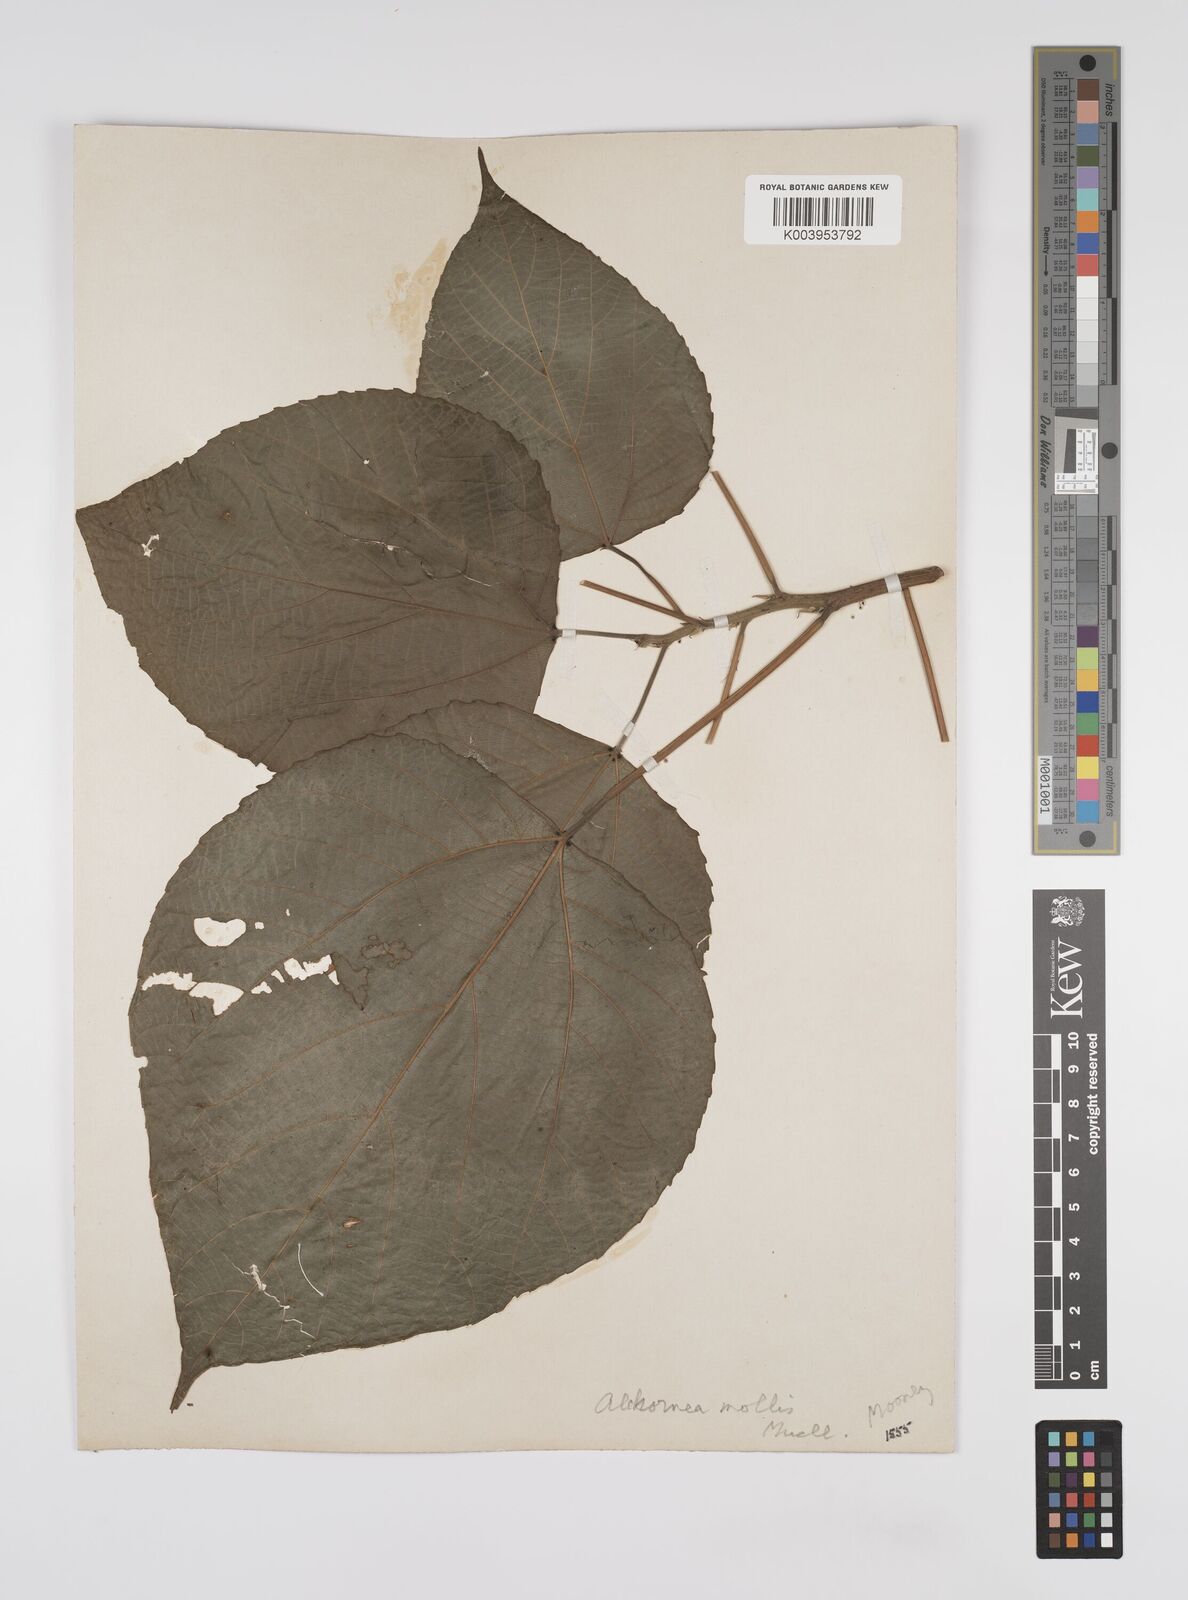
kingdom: Plantae
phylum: Tracheophyta
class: Magnoliopsida
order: Malpighiales
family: Euphorbiaceae
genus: Alchornea
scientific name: Alchornea mollis
